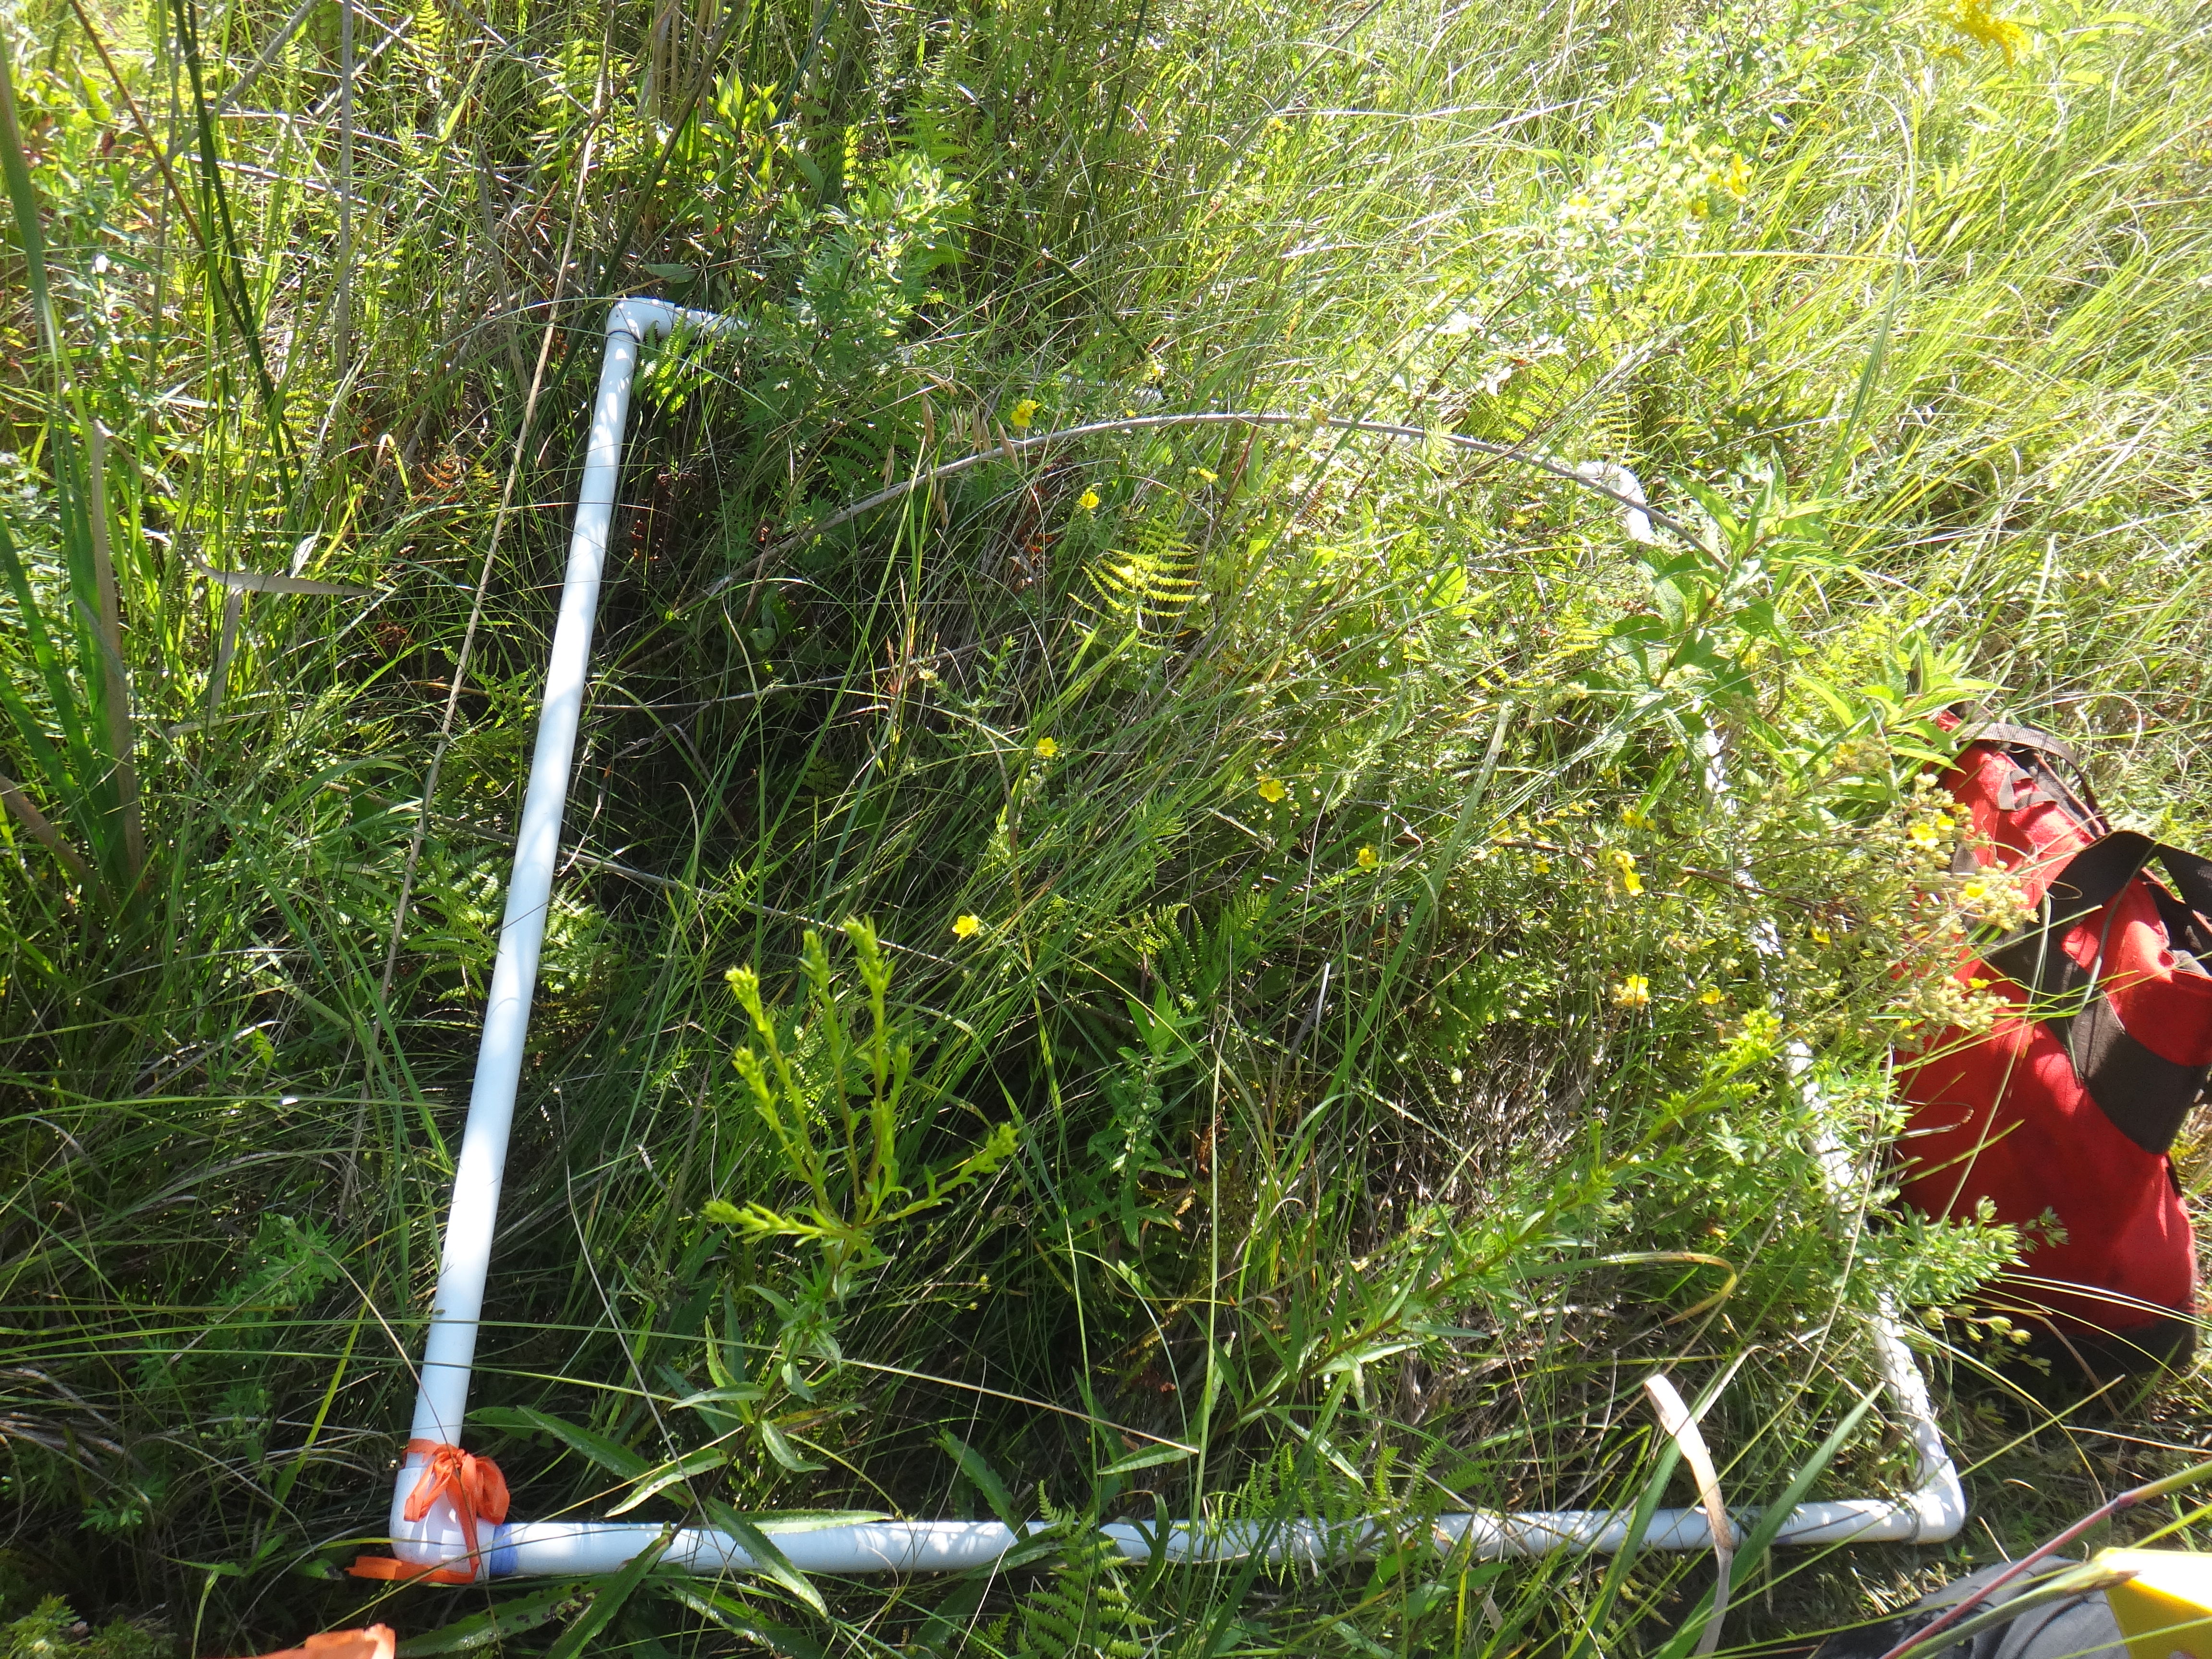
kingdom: Plantae
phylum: Tracheophyta
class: Liliopsida
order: Poales
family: Poaceae
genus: Bromus
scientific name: Bromus ciliatus
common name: Fringe brome
